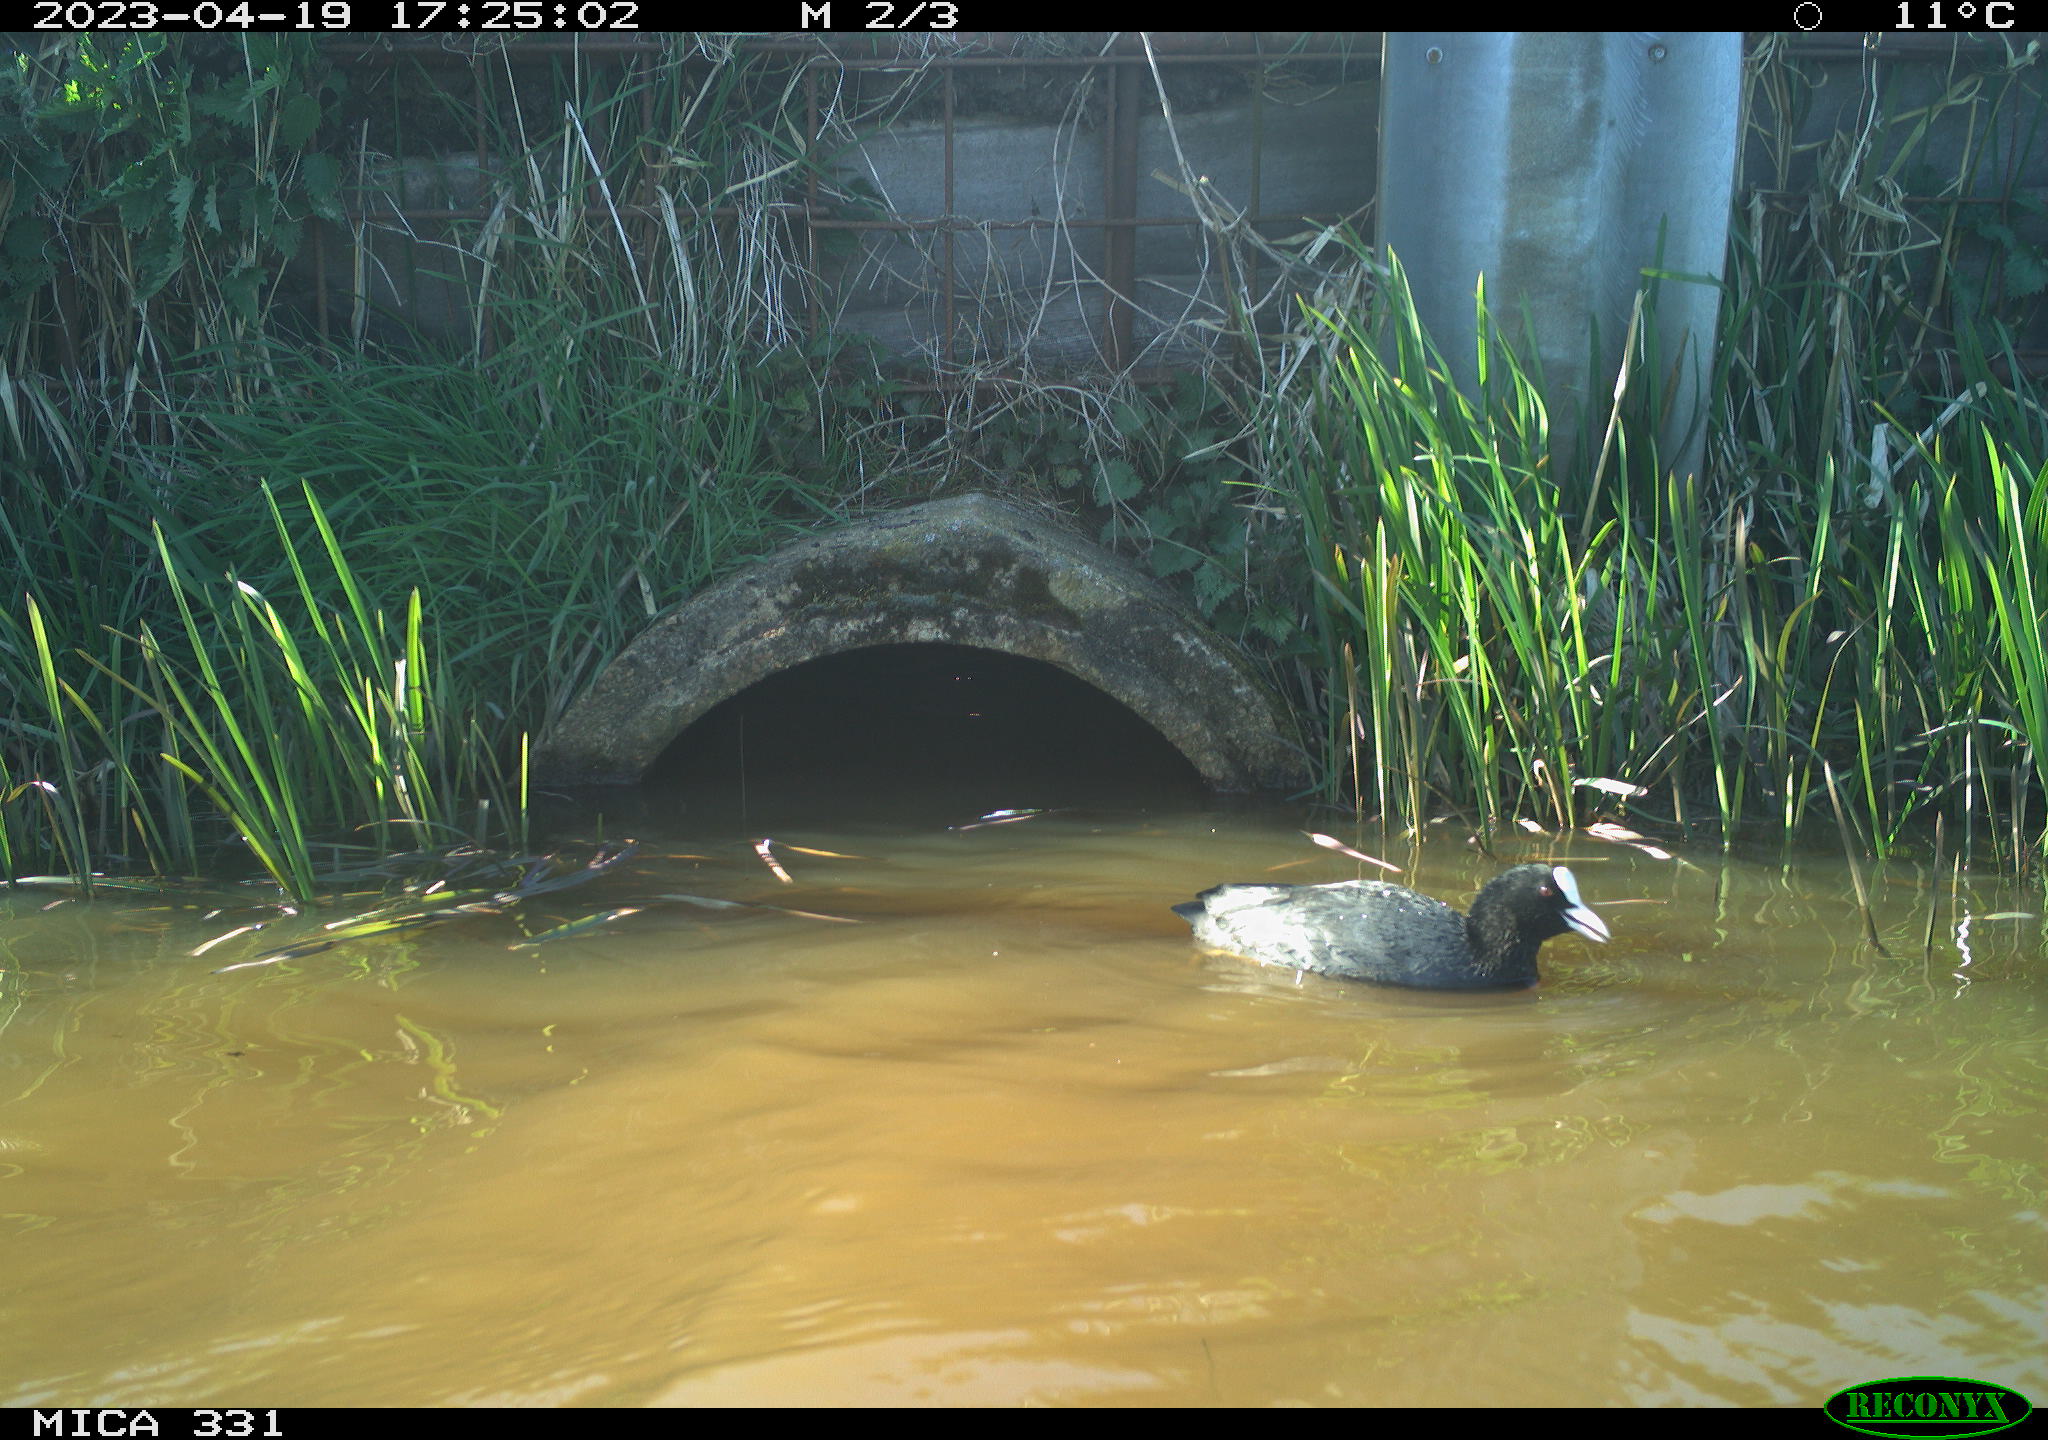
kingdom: Animalia
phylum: Chordata
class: Aves
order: Gruiformes
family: Rallidae
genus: Fulica
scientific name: Fulica atra
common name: Eurasian coot
